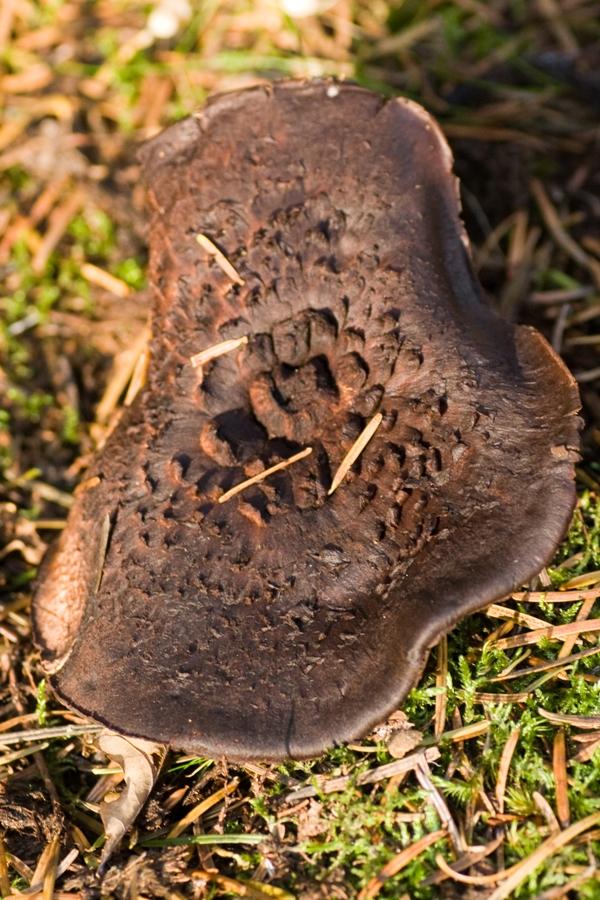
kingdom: Fungi
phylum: Basidiomycota
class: Agaricomycetes
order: Thelephorales
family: Bankeraceae
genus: Sarcodon
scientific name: Sarcodon squamosus
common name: småskællet kødpigsvamp
